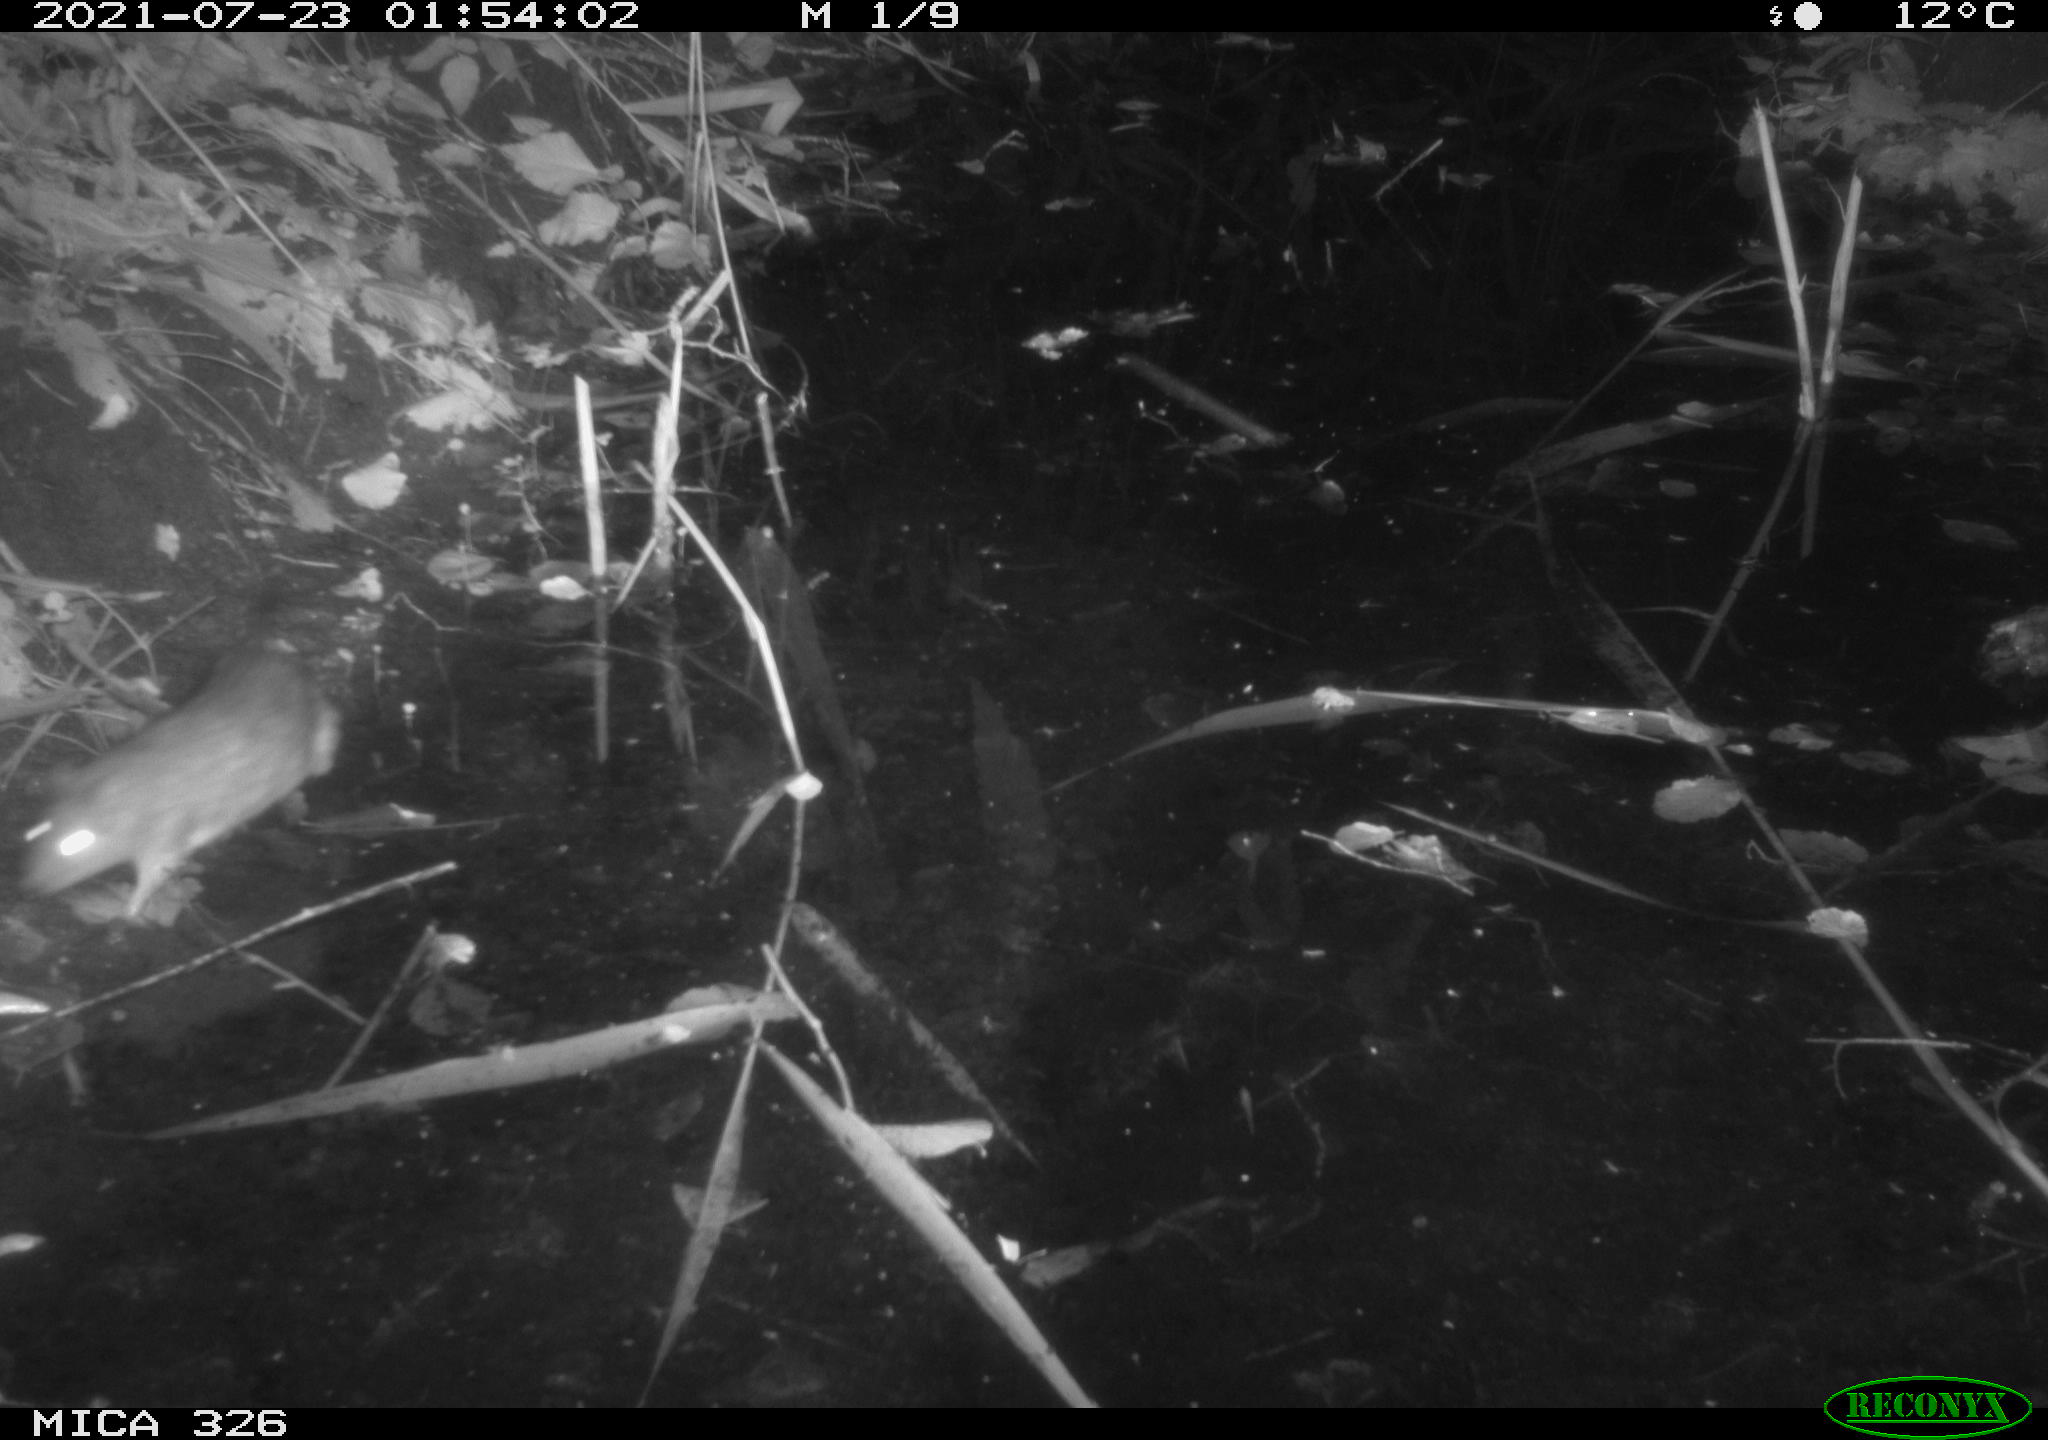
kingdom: Animalia
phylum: Chordata
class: Mammalia
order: Rodentia
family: Muridae
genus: Rattus
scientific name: Rattus norvegicus
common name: Brown rat
